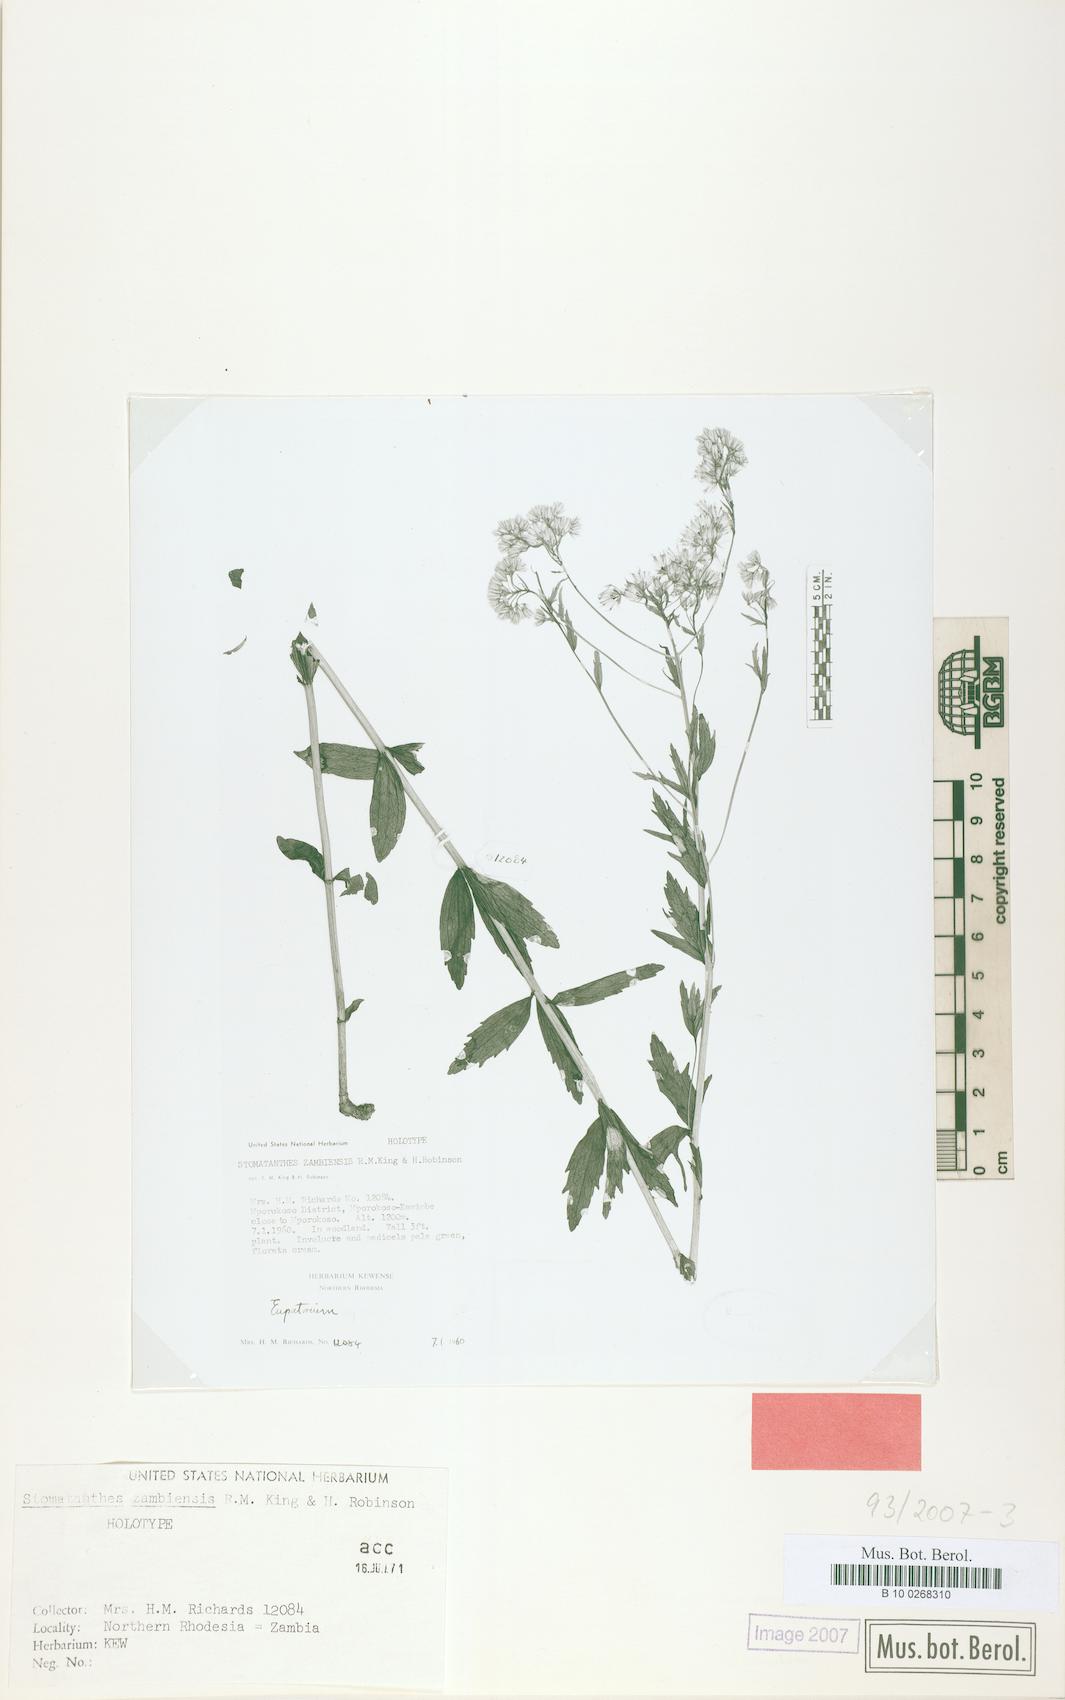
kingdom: Plantae
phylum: Tracheophyta
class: Magnoliopsida
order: Asterales
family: Asteraceae
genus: Criscianthus
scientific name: Criscianthus zambiensis
